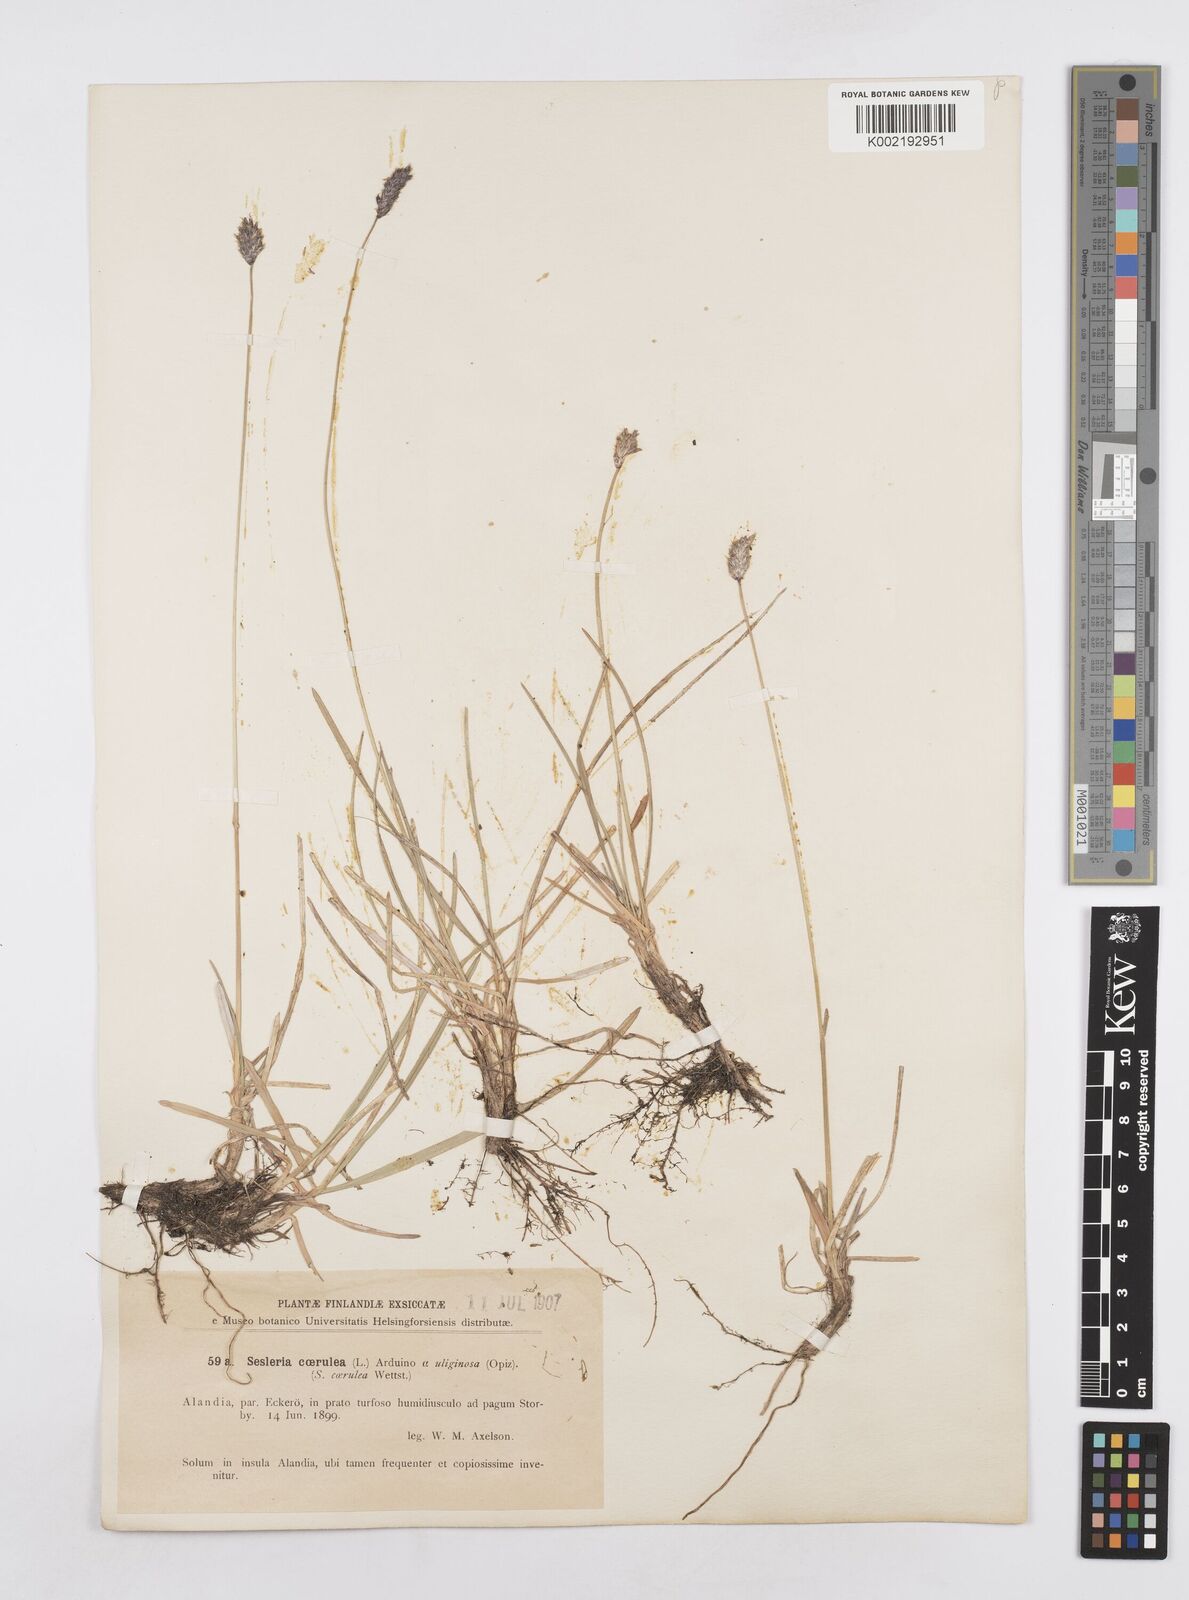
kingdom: Plantae
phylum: Tracheophyta
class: Liliopsida
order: Poales
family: Poaceae
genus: Sesleria
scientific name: Sesleria caerulea
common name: Blue moor-grass
